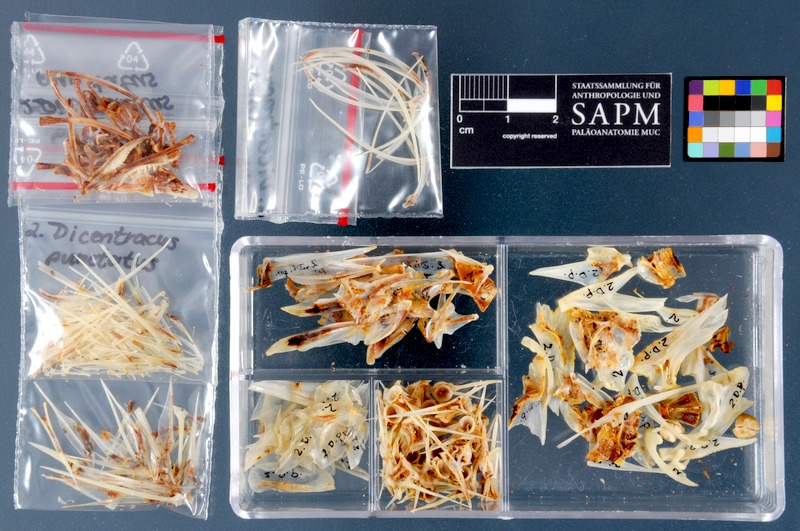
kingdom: Animalia
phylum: Chordata
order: Perciformes
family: Moronidae
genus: Dicentrarchus
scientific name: Dicentrarchus punctatus
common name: Black-spotted bass
